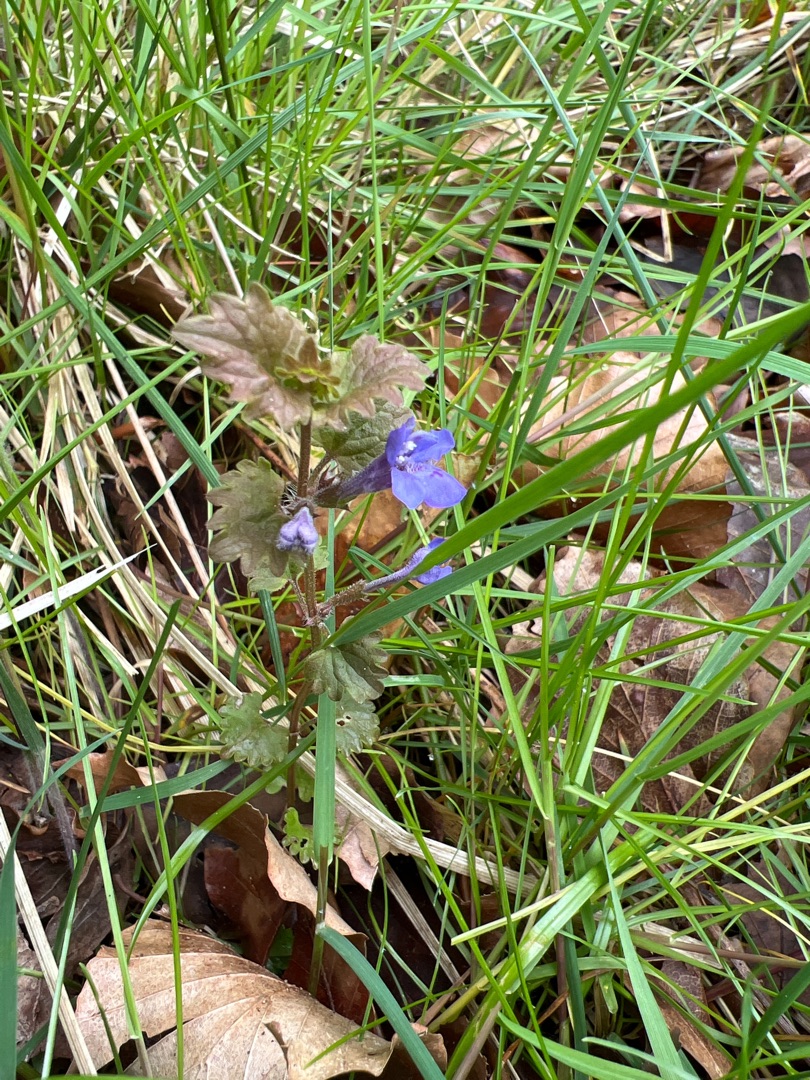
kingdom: Plantae
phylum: Tracheophyta
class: Magnoliopsida
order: Lamiales
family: Lamiaceae
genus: Glechoma
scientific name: Glechoma hederacea
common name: Korsknap
